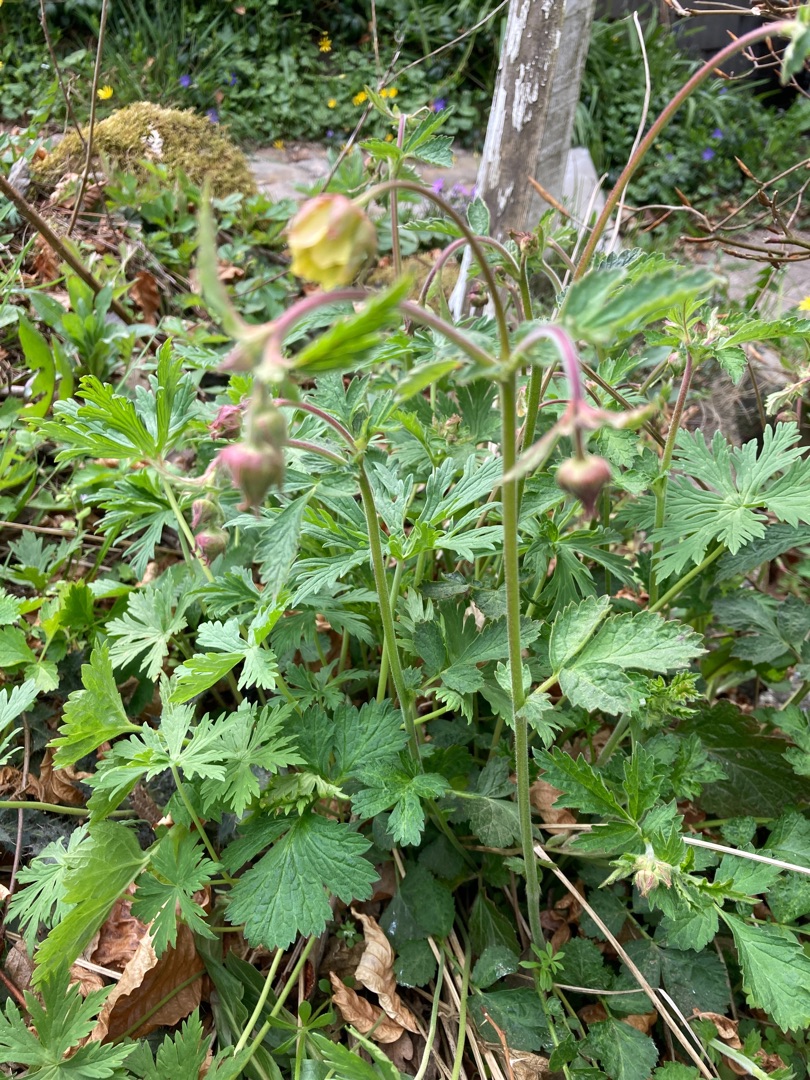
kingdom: Plantae
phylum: Tracheophyta
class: Magnoliopsida
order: Rosales
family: Rosaceae
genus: Geum
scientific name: Geum
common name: Høj nellikerod
